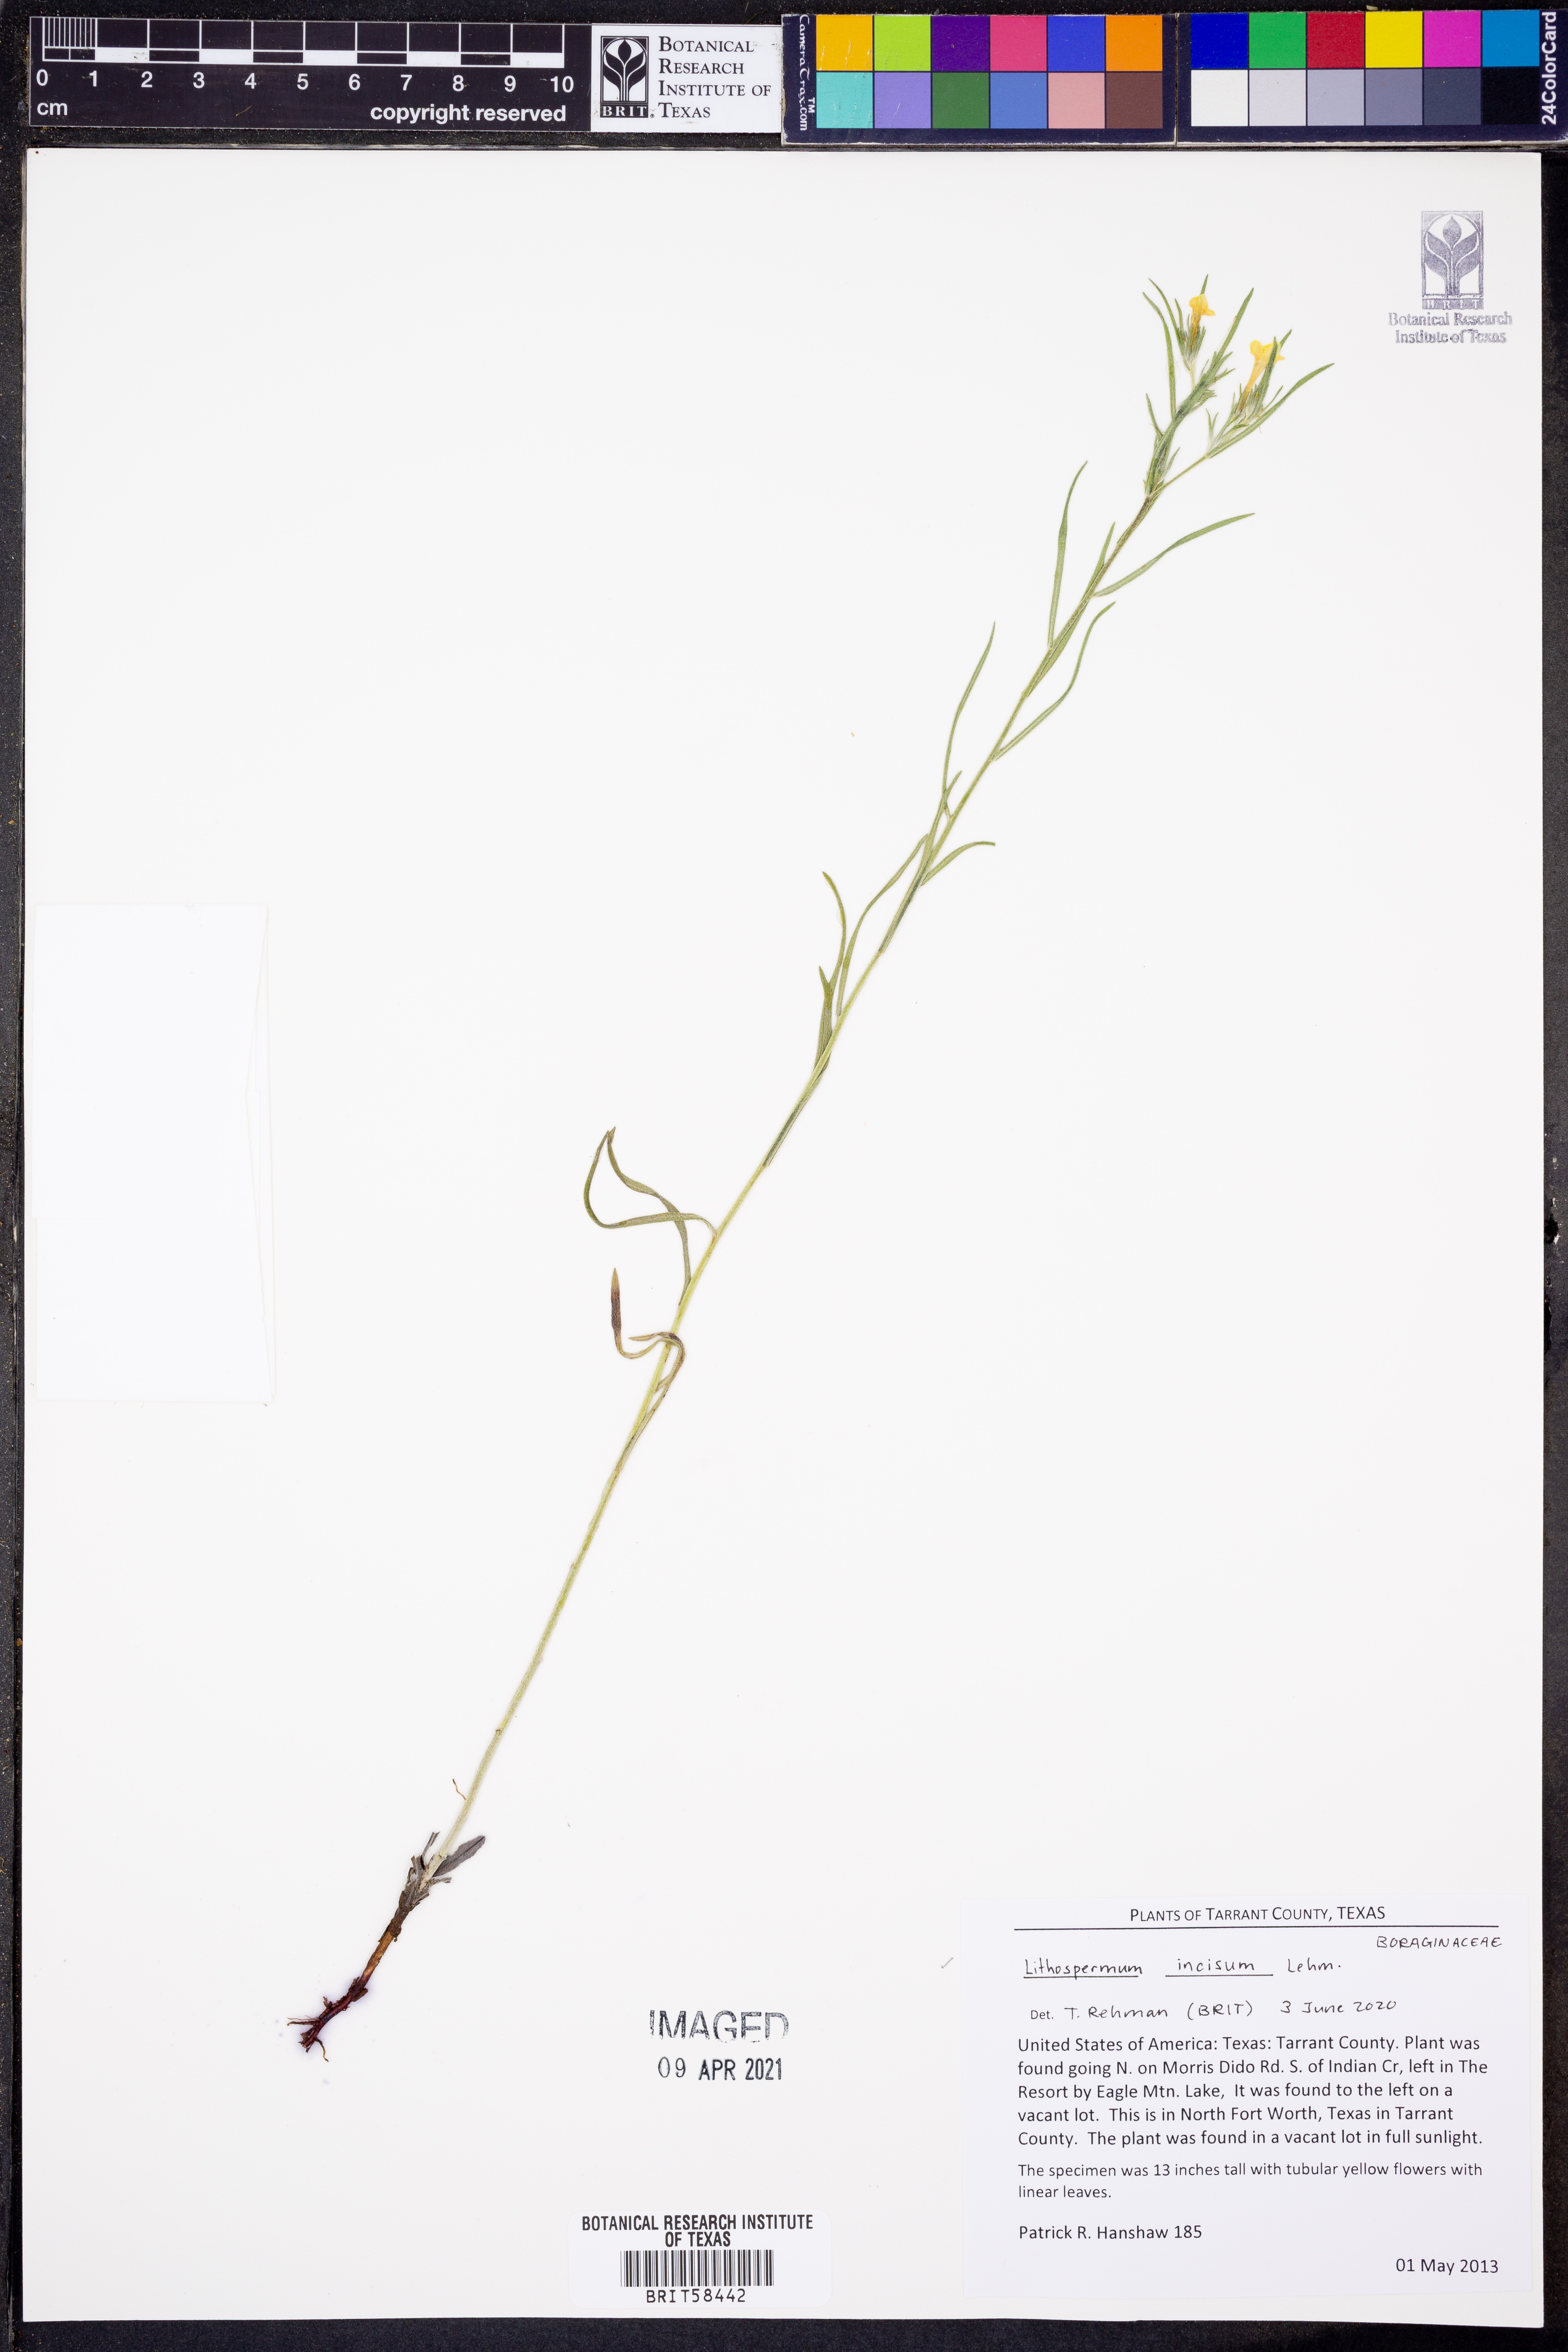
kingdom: Plantae
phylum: Tracheophyta
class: Magnoliopsida
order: Boraginales
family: Boraginaceae
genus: Lithospermum
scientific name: Lithospermum incisum
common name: Fringed gromwell
